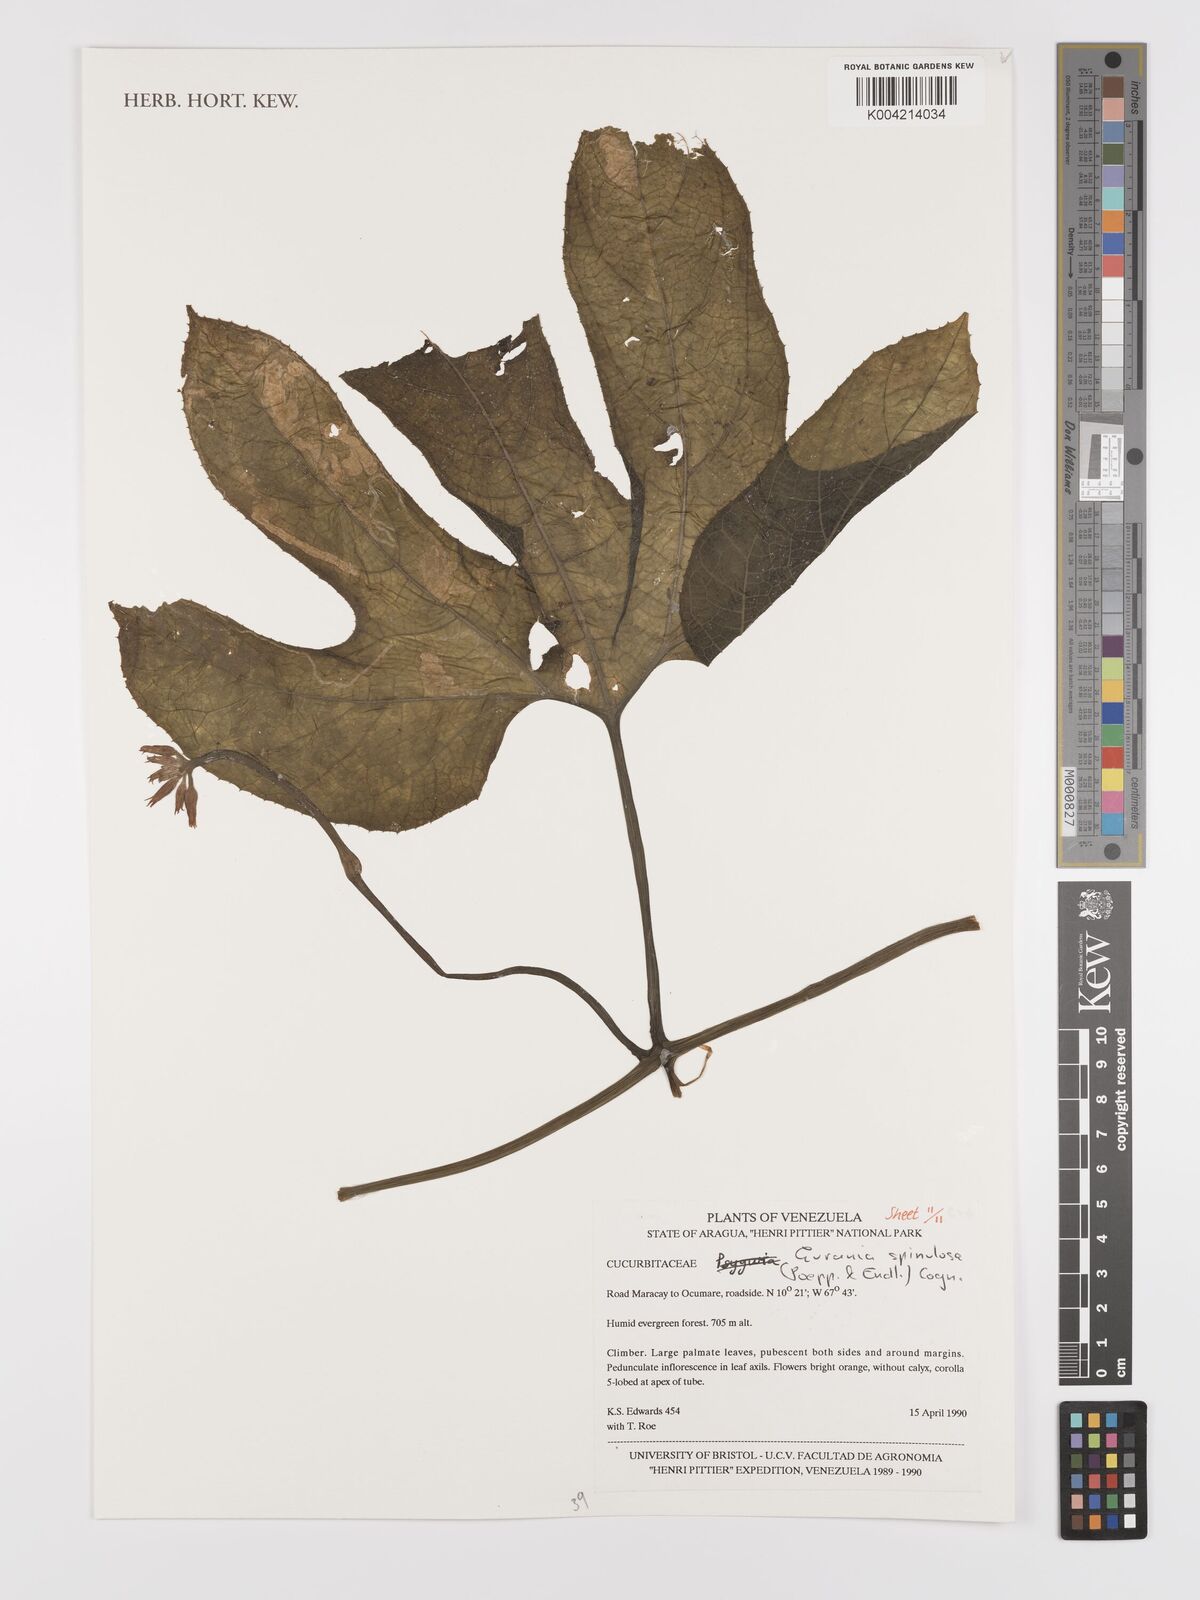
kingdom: Plantae
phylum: Tracheophyta
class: Magnoliopsida
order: Cucurbitales
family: Cucurbitaceae
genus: Gurania
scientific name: Gurania lobata
